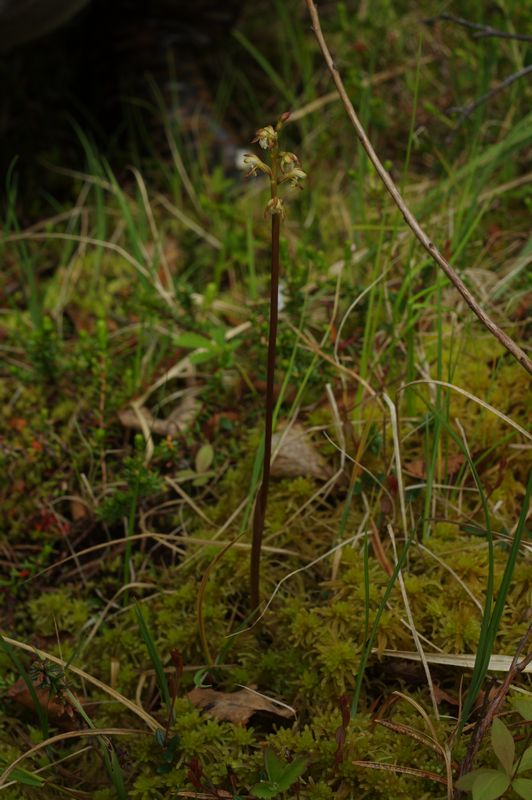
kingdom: Plantae
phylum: Tracheophyta
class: Liliopsida
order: Asparagales
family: Orchidaceae
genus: Corallorhiza
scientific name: Corallorhiza trifida
